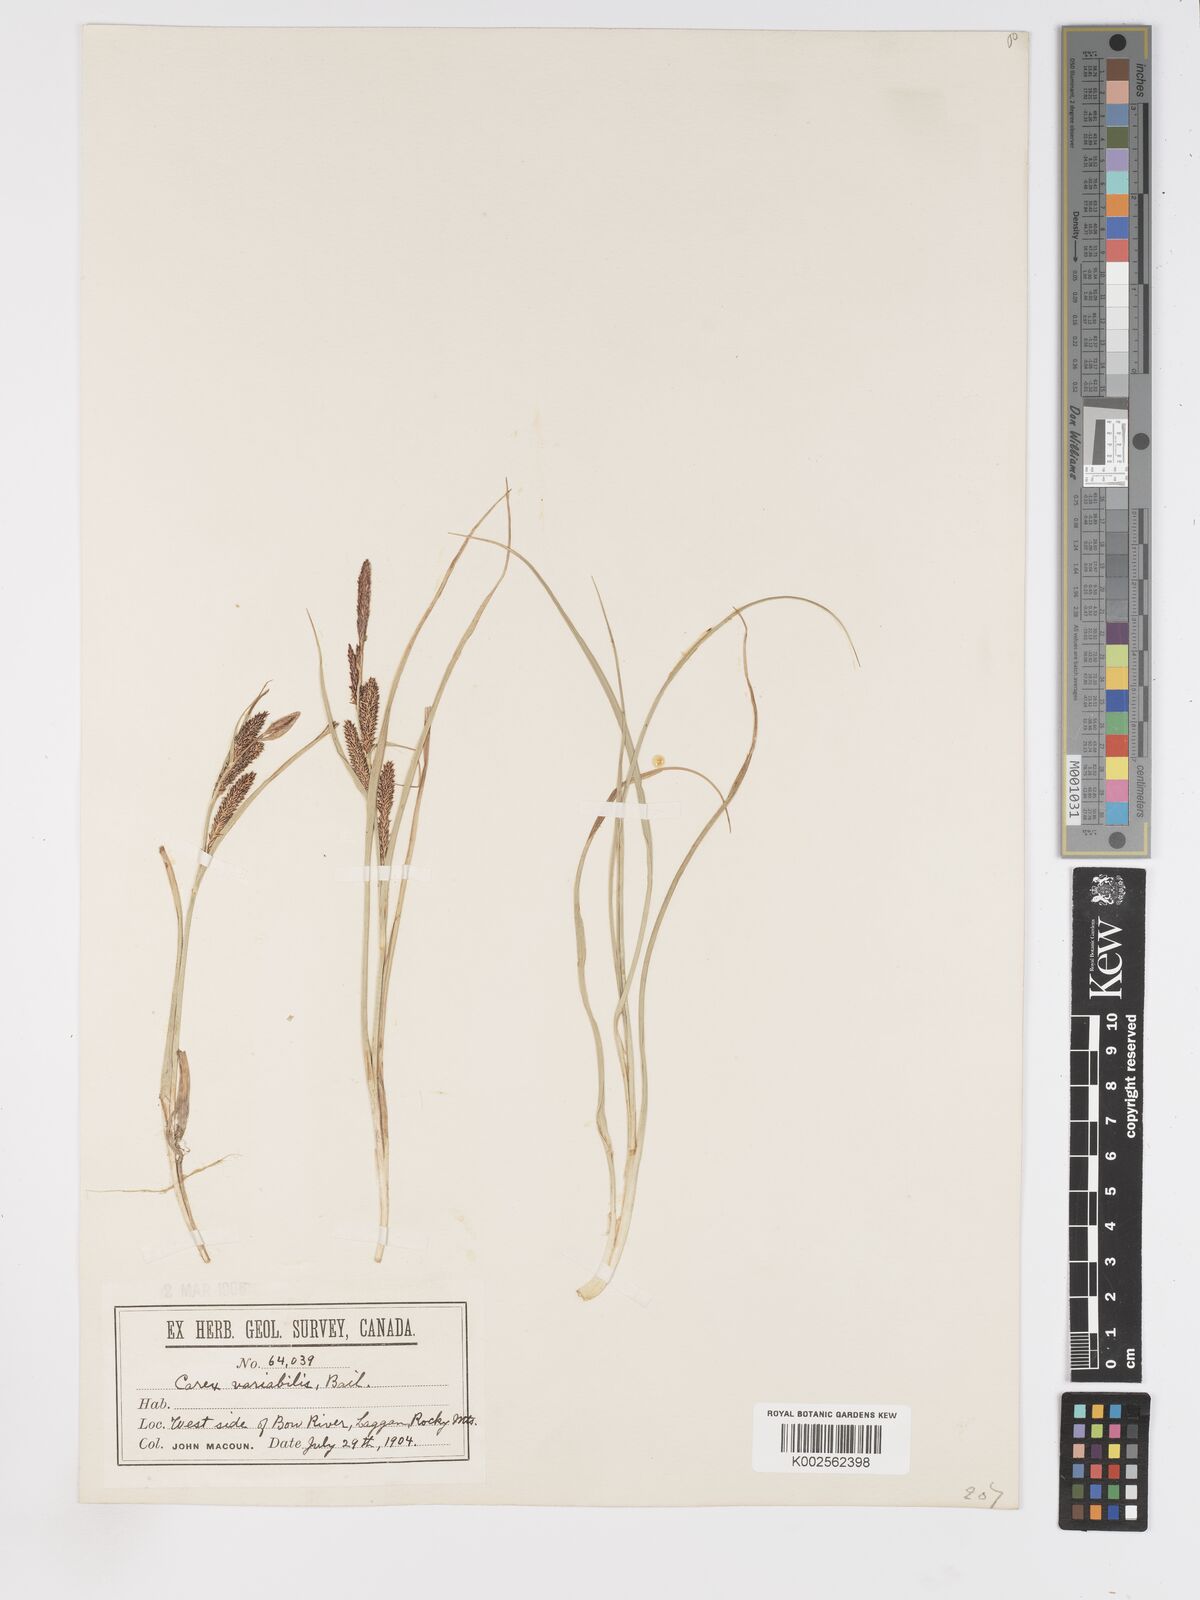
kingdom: Plantae
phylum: Tracheophyta
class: Liliopsida
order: Poales
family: Cyperaceae
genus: Carex
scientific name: Carex aquatilis
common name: Water sedge
